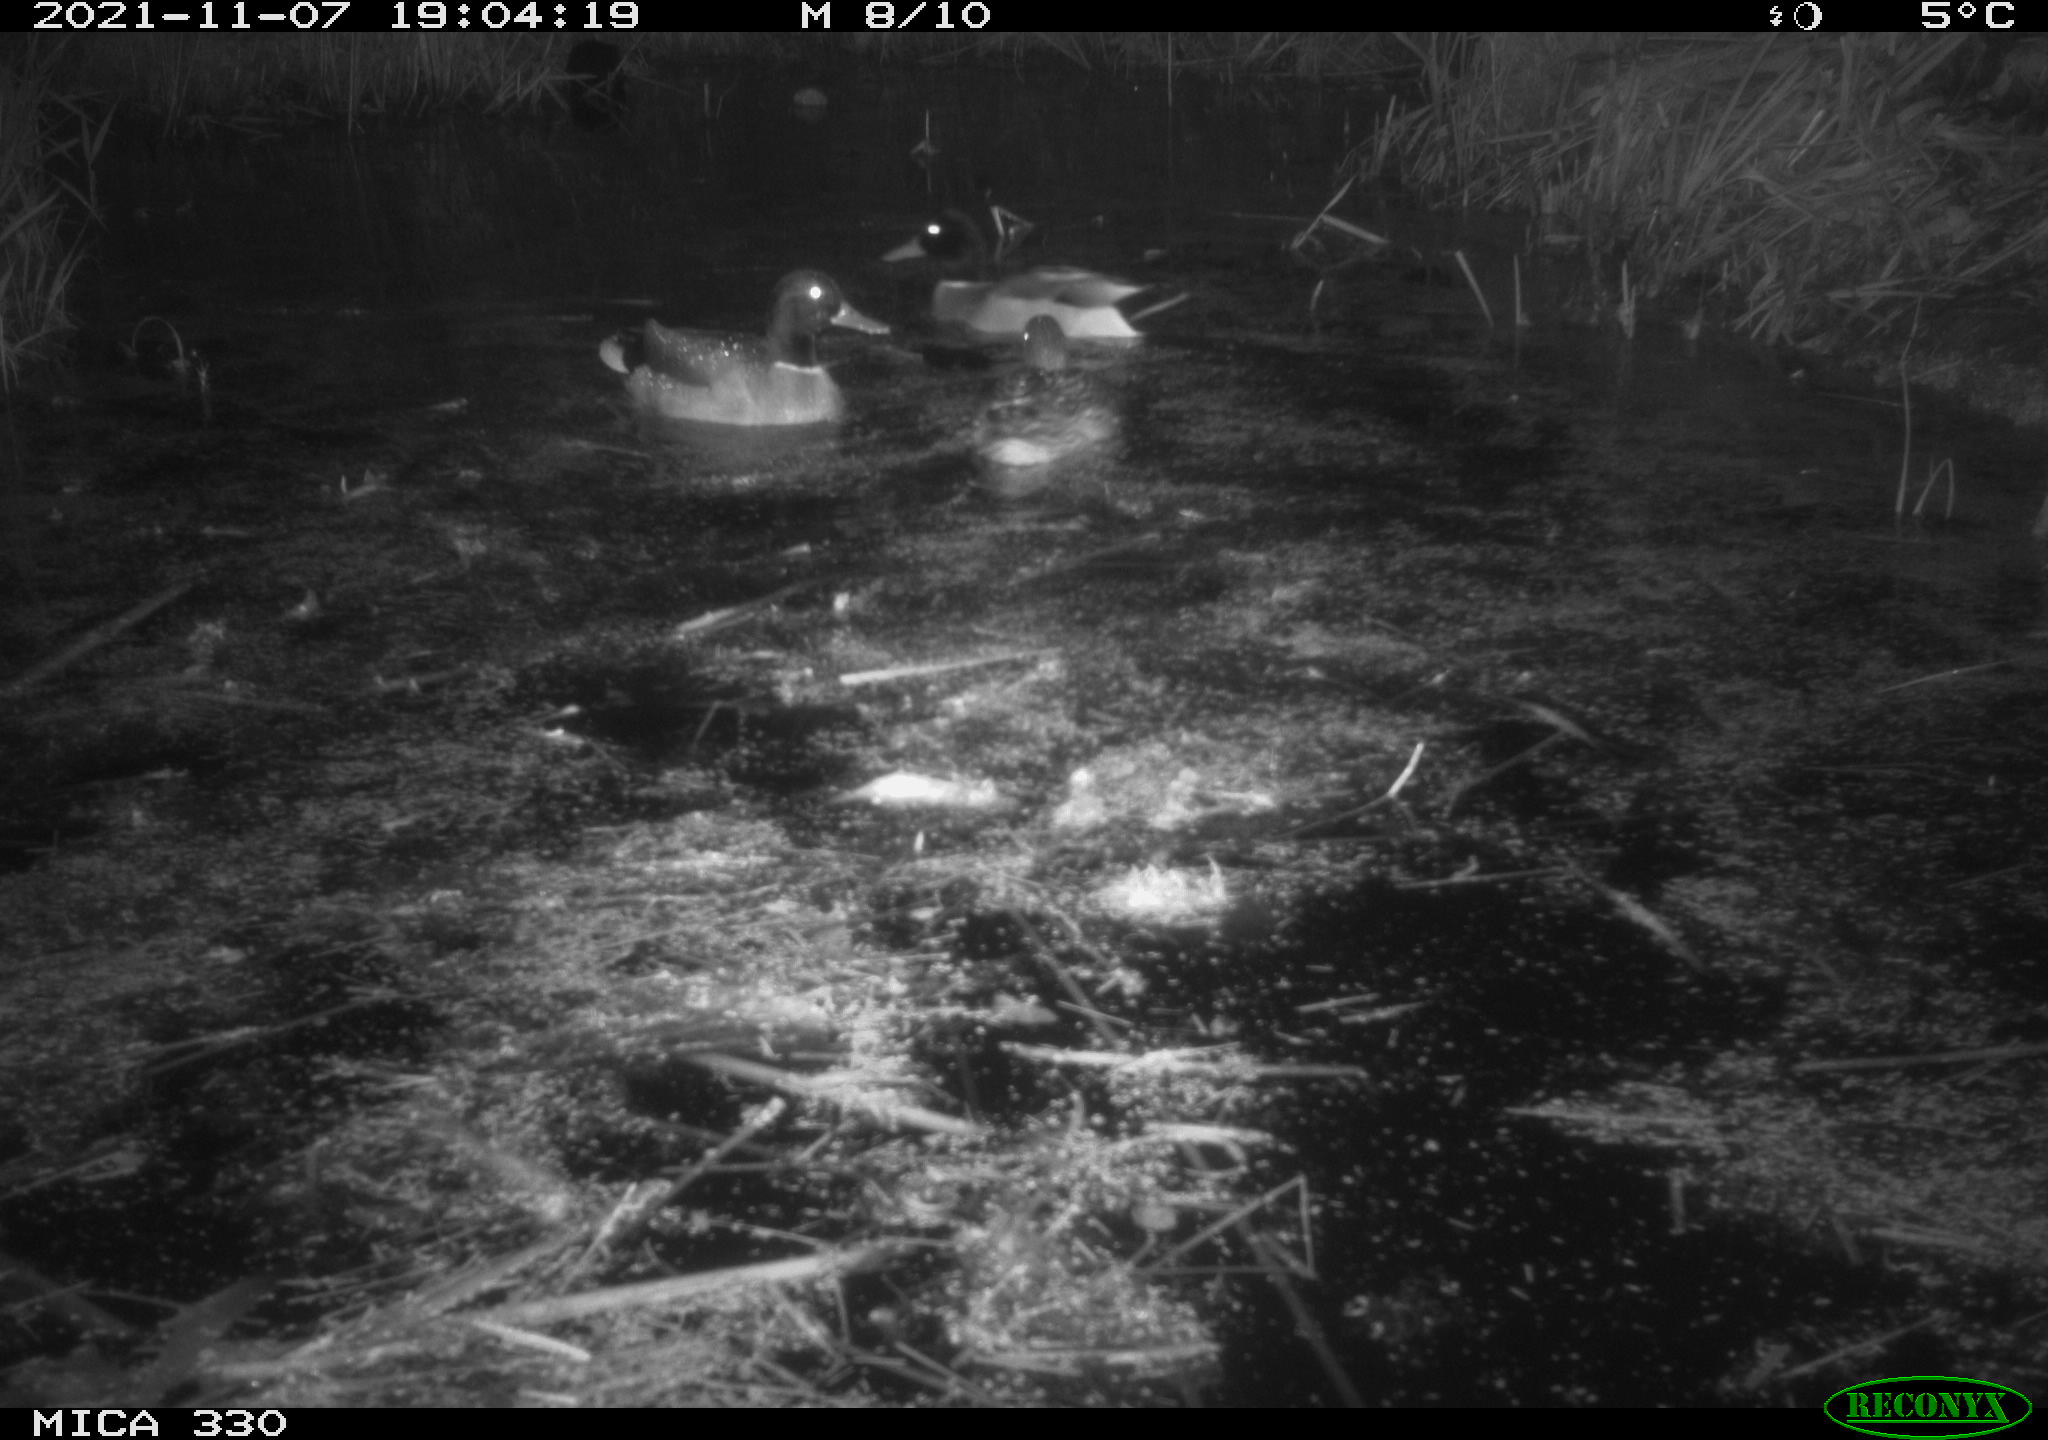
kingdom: Animalia
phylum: Chordata
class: Aves
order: Anseriformes
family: Anatidae
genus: Anas
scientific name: Anas platyrhynchos
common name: Mallard
